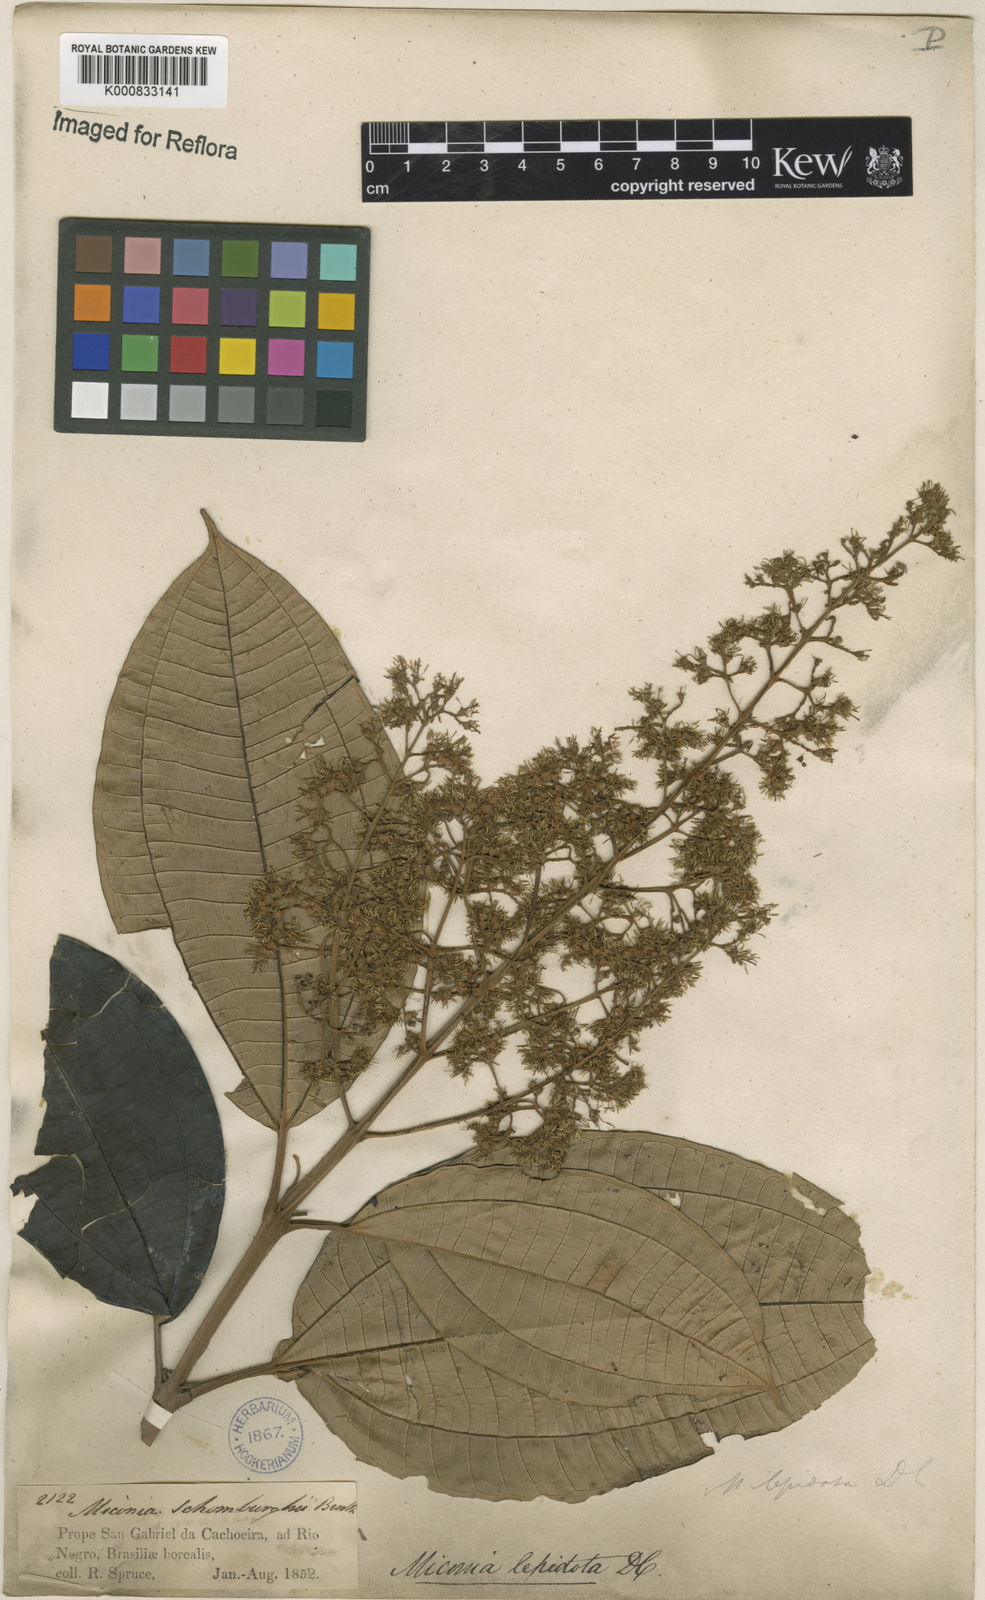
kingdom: Plantae
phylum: Tracheophyta
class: Magnoliopsida
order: Myrtales
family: Melastomataceae
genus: Miconia
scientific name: Miconia lepidota
